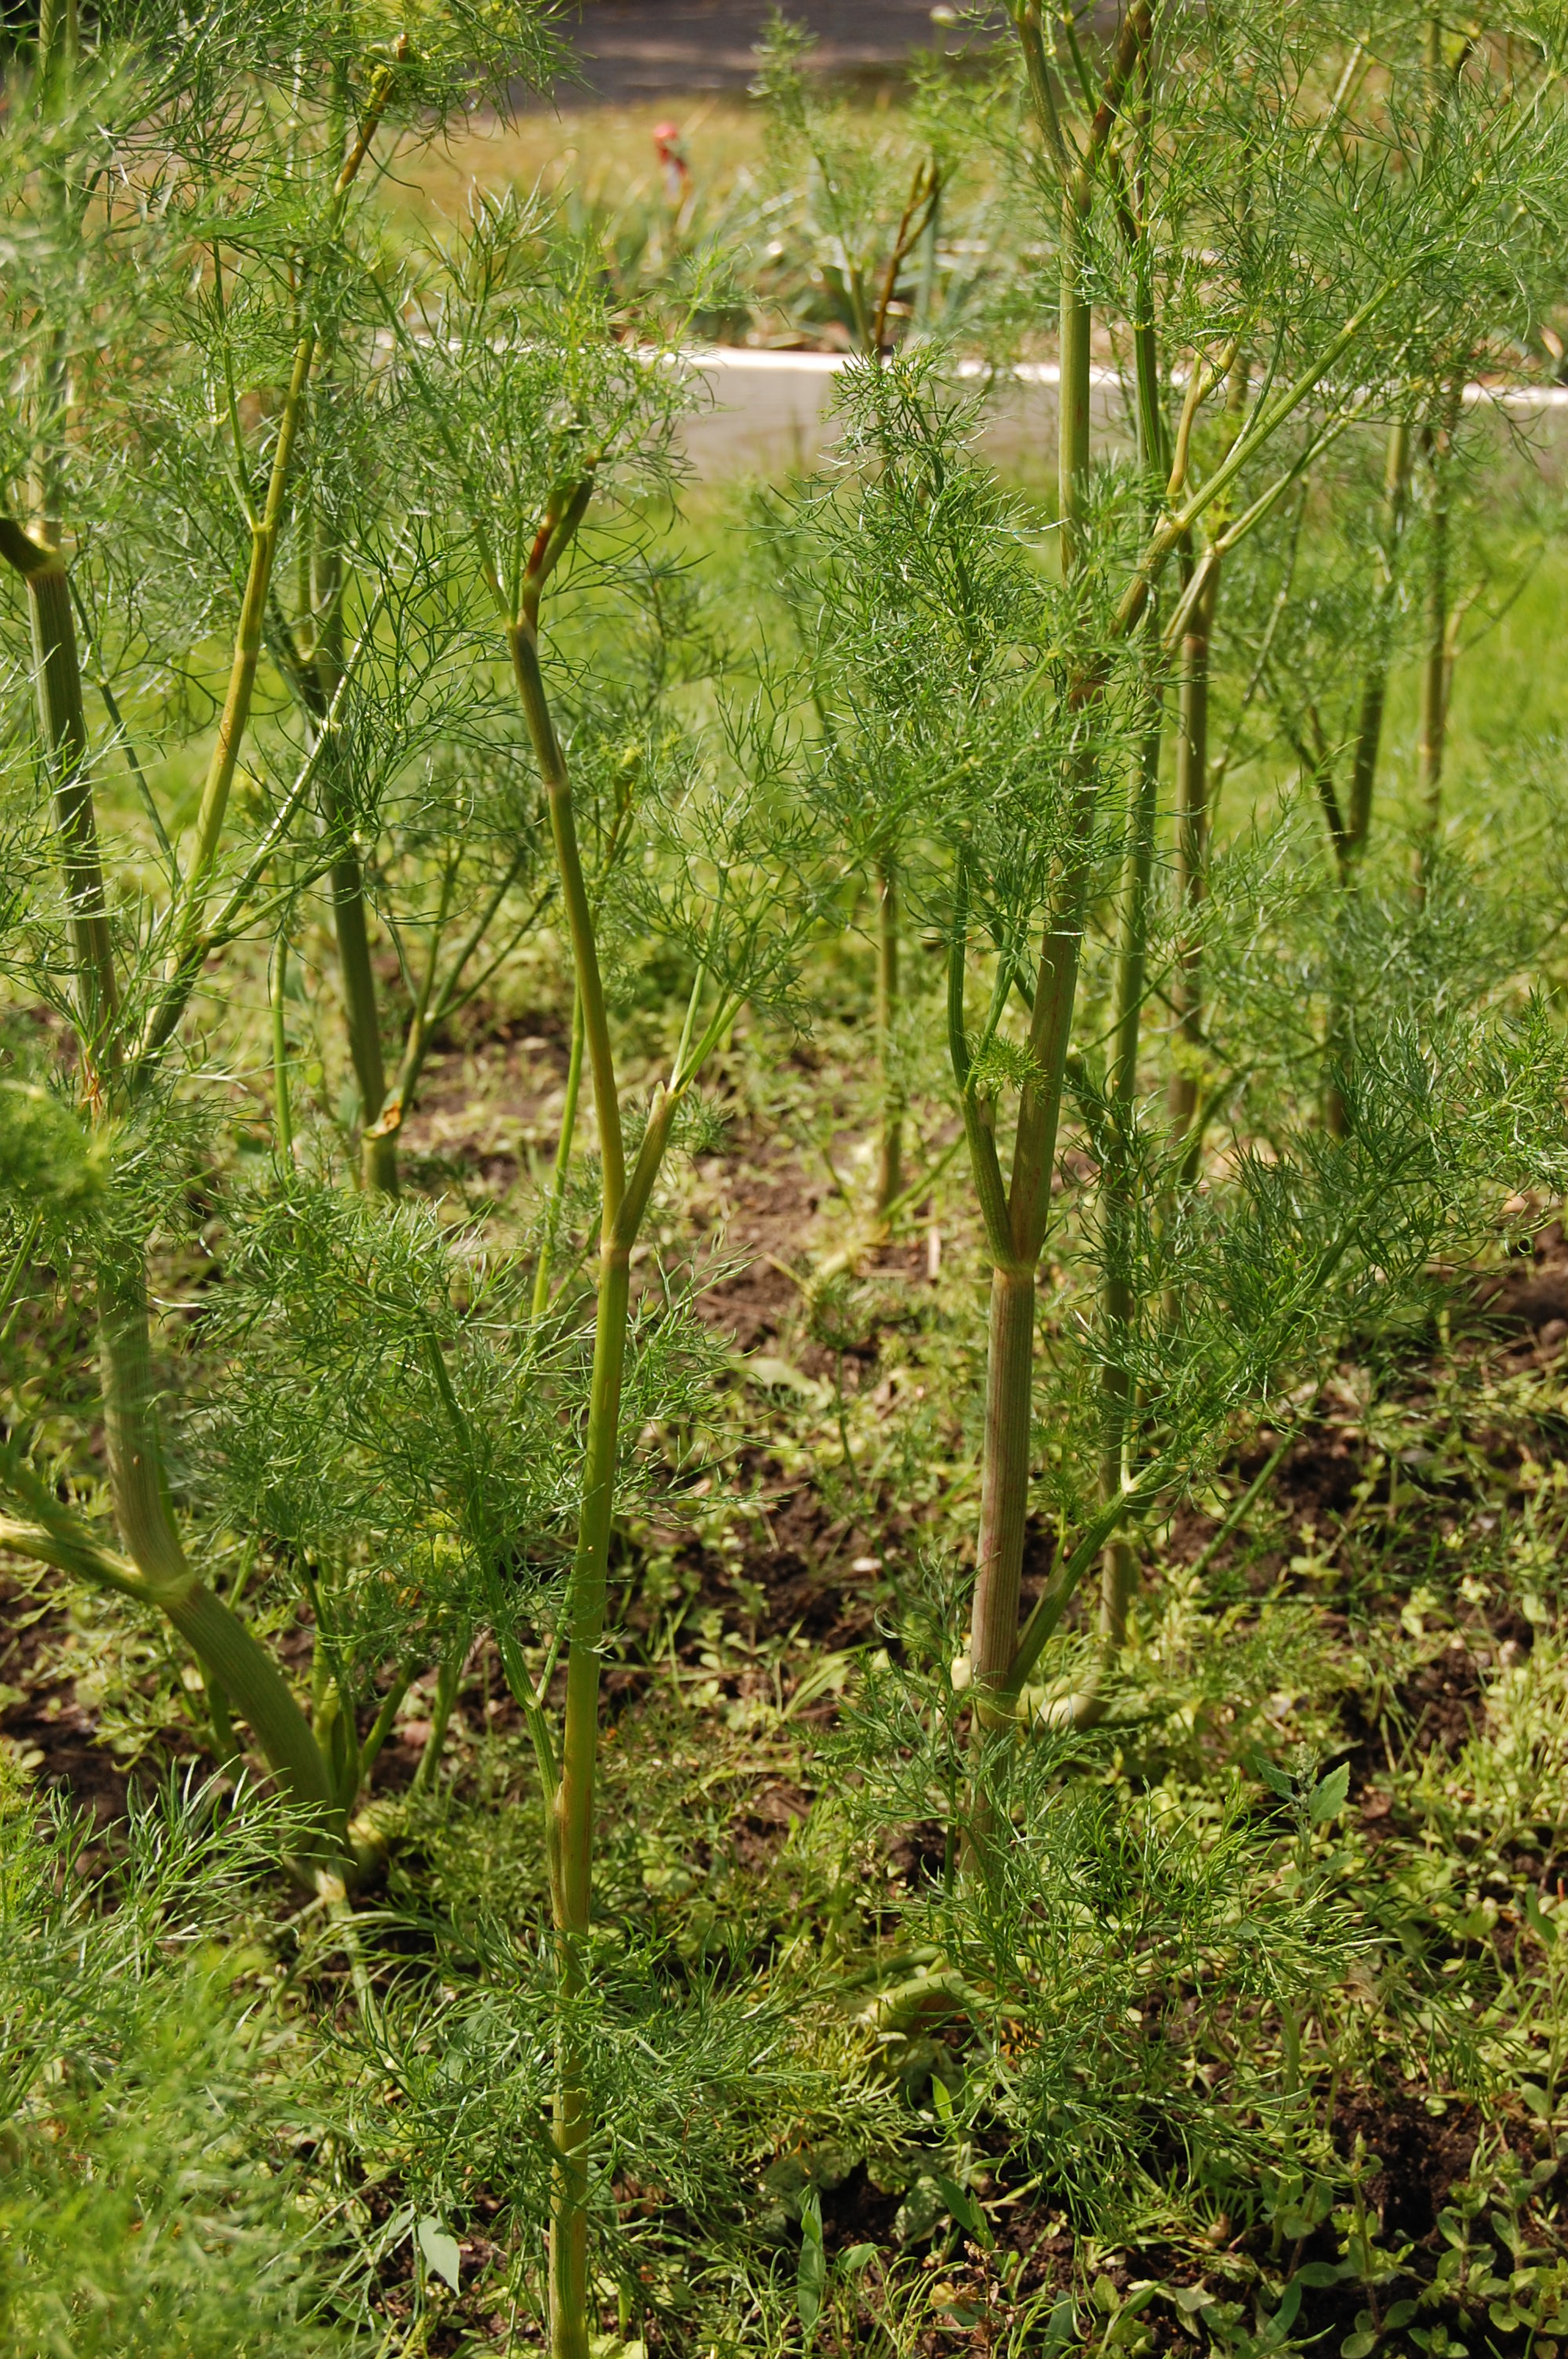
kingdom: Plantae
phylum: Tracheophyta
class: Magnoliopsida
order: Apiales
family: Apiaceae
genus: Anethum
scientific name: Anethum graveolens
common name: Dill
